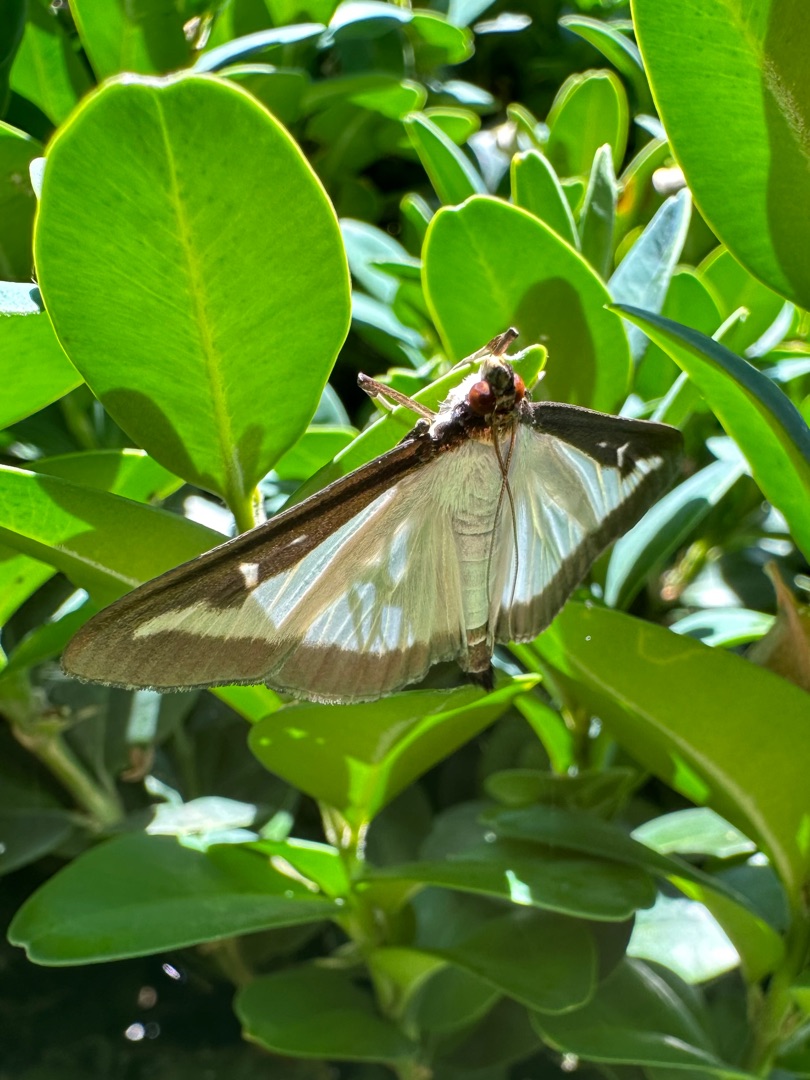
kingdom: Animalia
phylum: Arthropoda
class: Insecta
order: Lepidoptera
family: Crambidae
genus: Cydalima
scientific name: Cydalima perspectalis
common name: Buksbomhalvmøl
